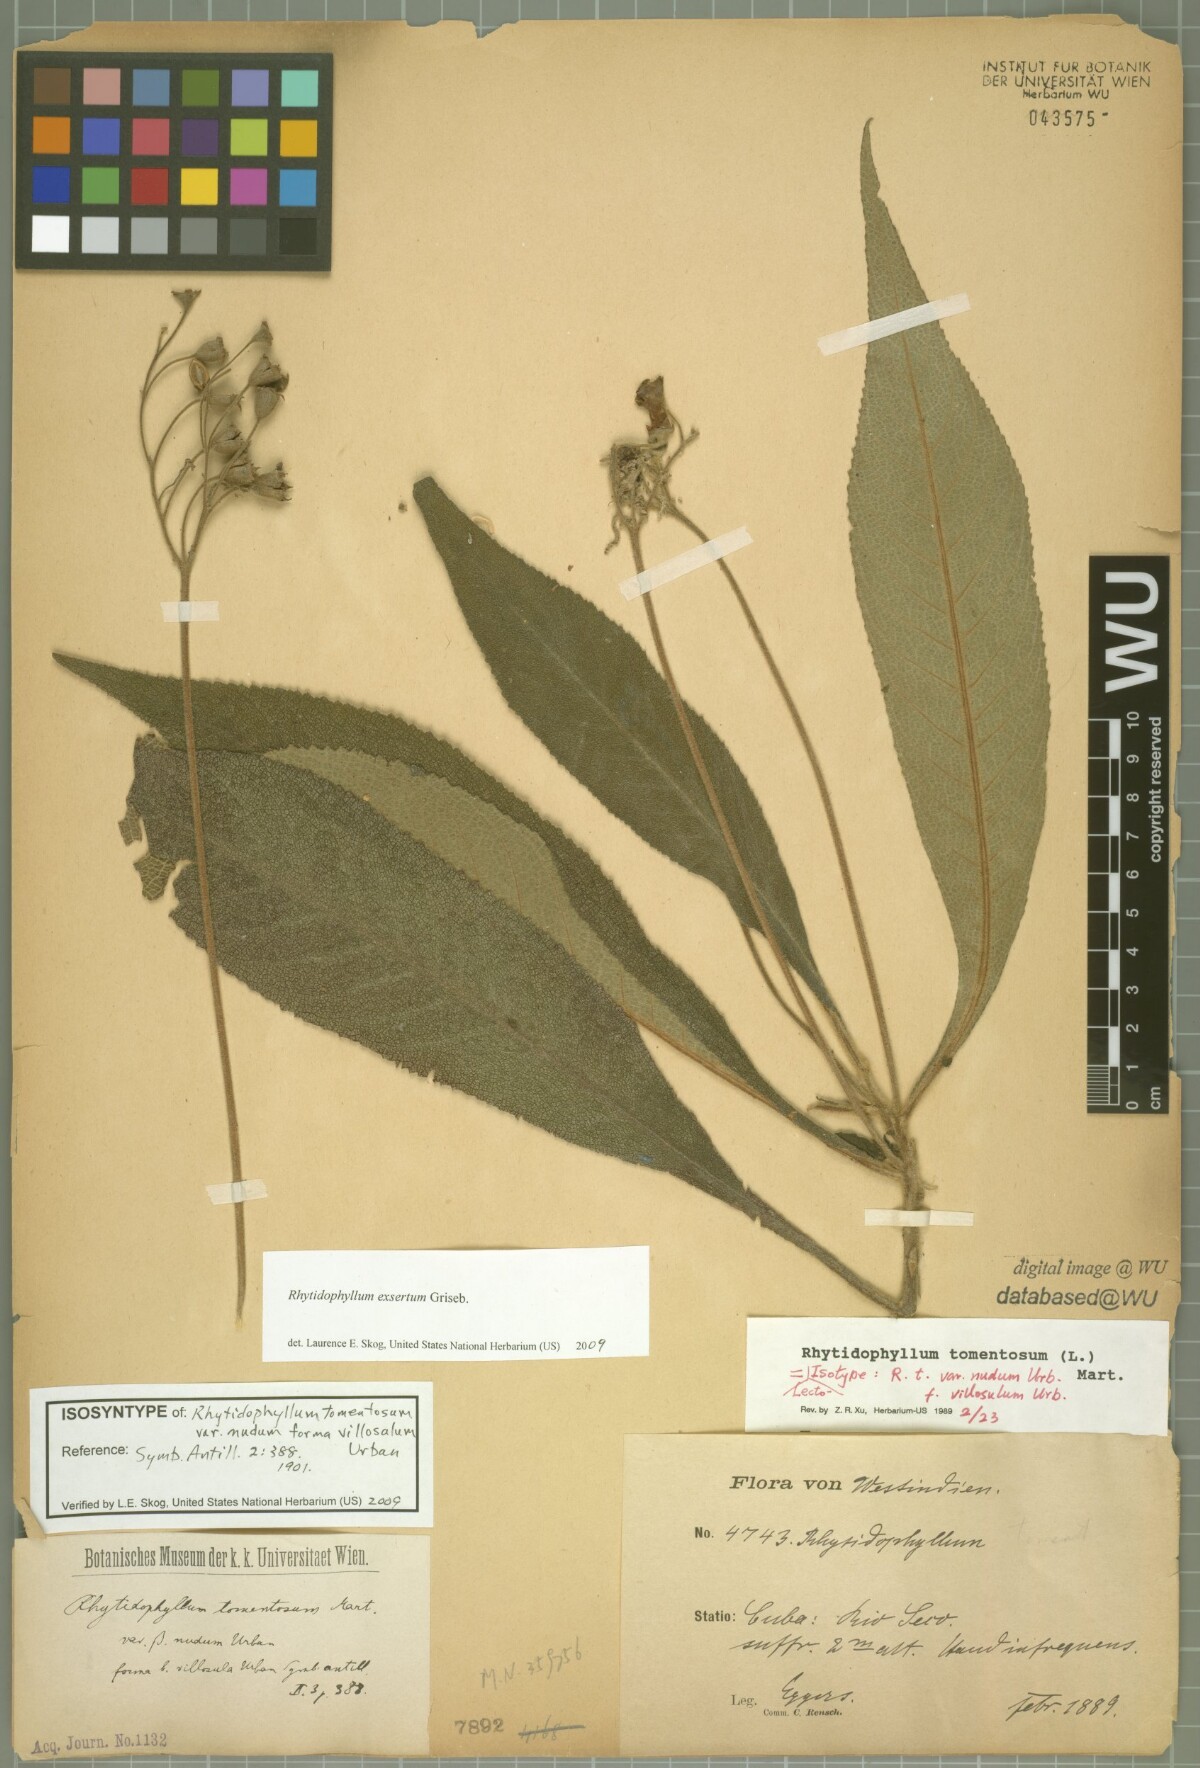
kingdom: Plantae
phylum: Tracheophyta
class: Magnoliopsida
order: Lamiales
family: Gesneriaceae
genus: Rhytidophyllum
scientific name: Rhytidophyllum exsertum
